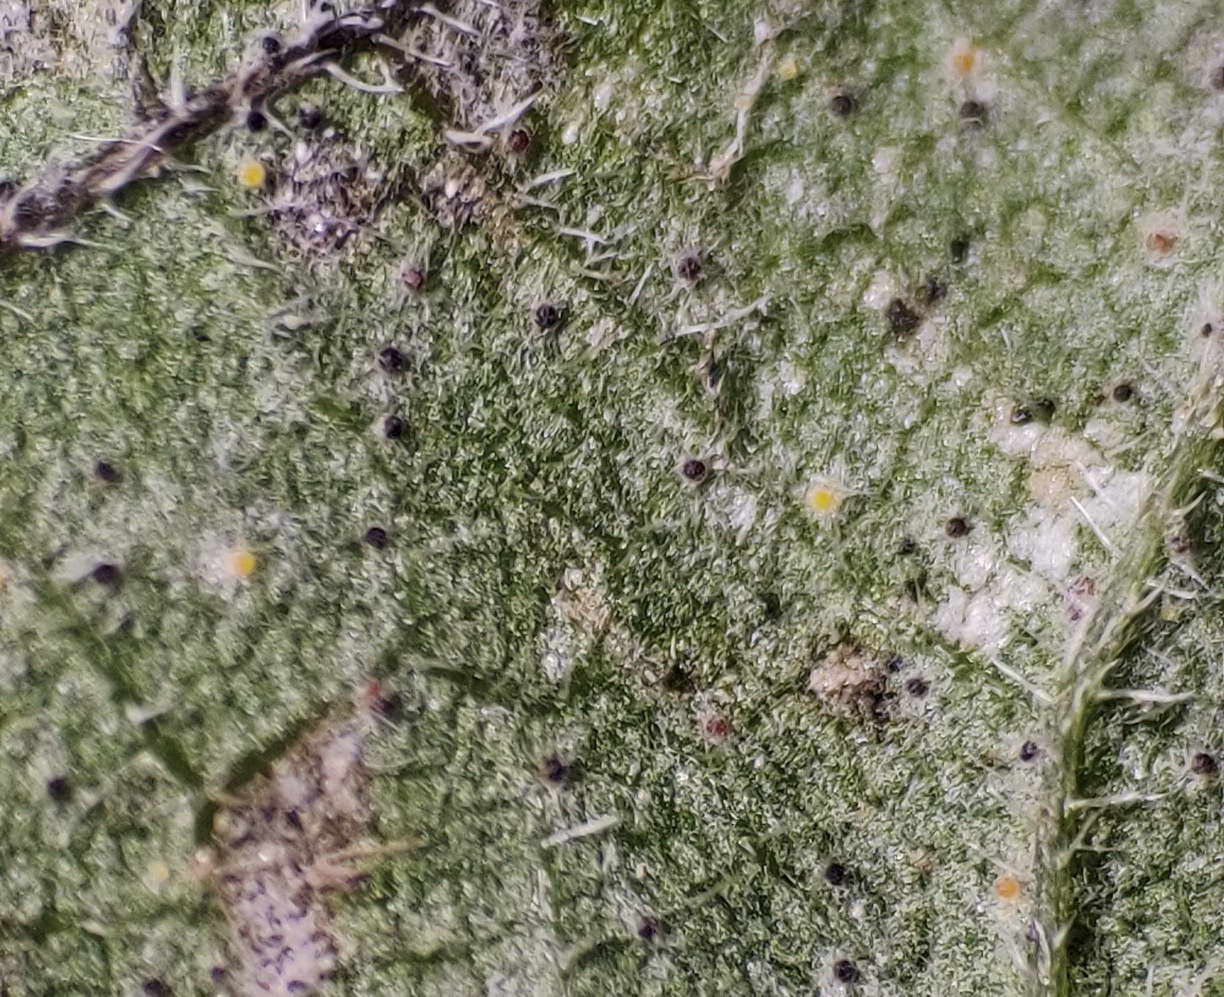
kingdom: Fungi
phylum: Ascomycota
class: Leotiomycetes
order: Helotiales
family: Erysiphaceae
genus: Erysiphe
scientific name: Erysiphe urticae
